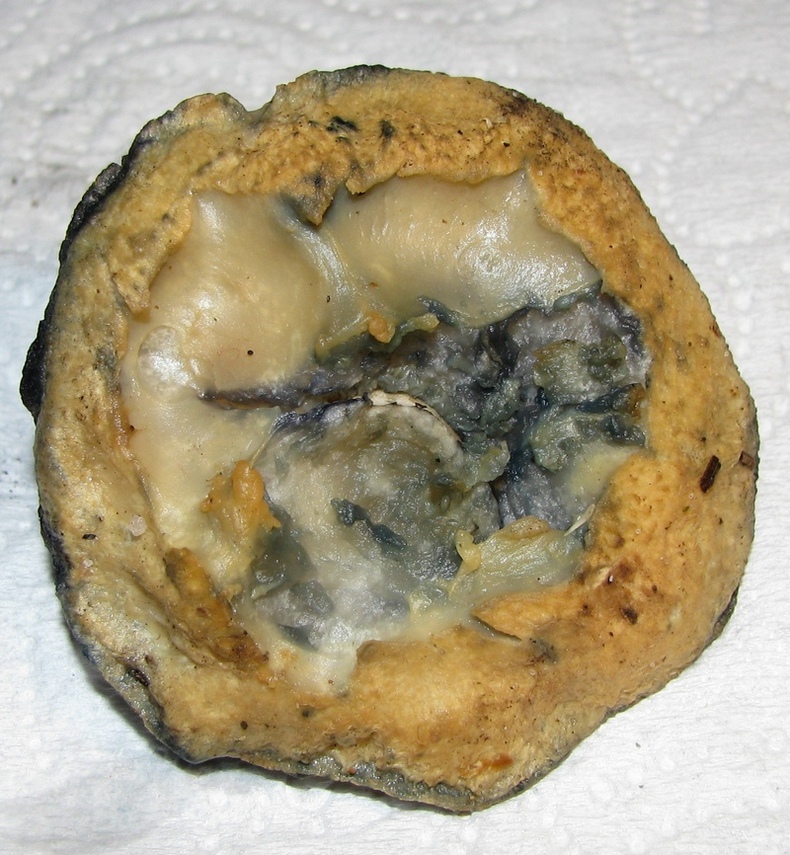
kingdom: Fungi
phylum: Basidiomycota
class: Agaricomycetes
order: Boletales
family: Gyroporaceae
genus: Gyroporus
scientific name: Gyroporus cyanescens
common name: blånende kammerrørhat
